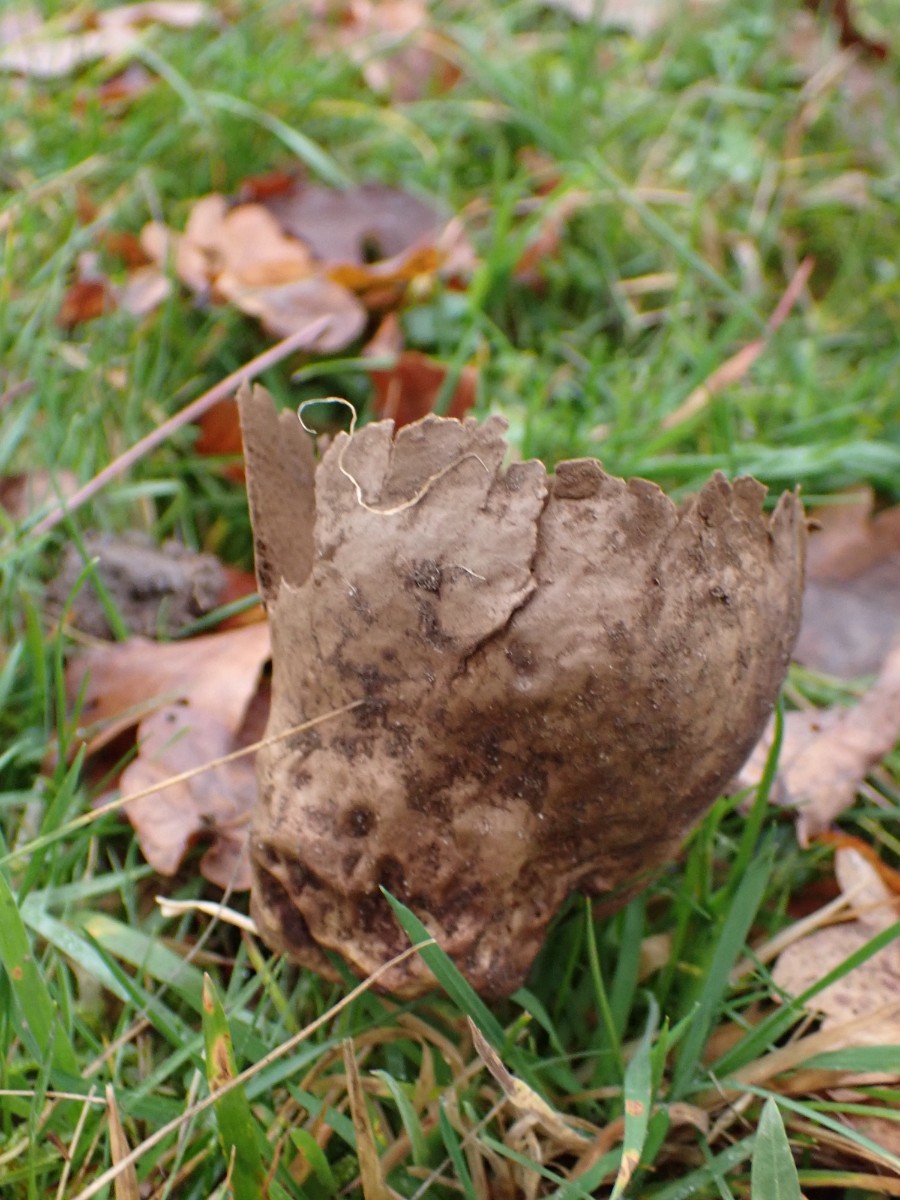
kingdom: Fungi
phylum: Basidiomycota
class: Agaricomycetes
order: Agaricales
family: Lycoperdaceae
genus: Bovistella
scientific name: Bovistella utriformis
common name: skællet støvbold
